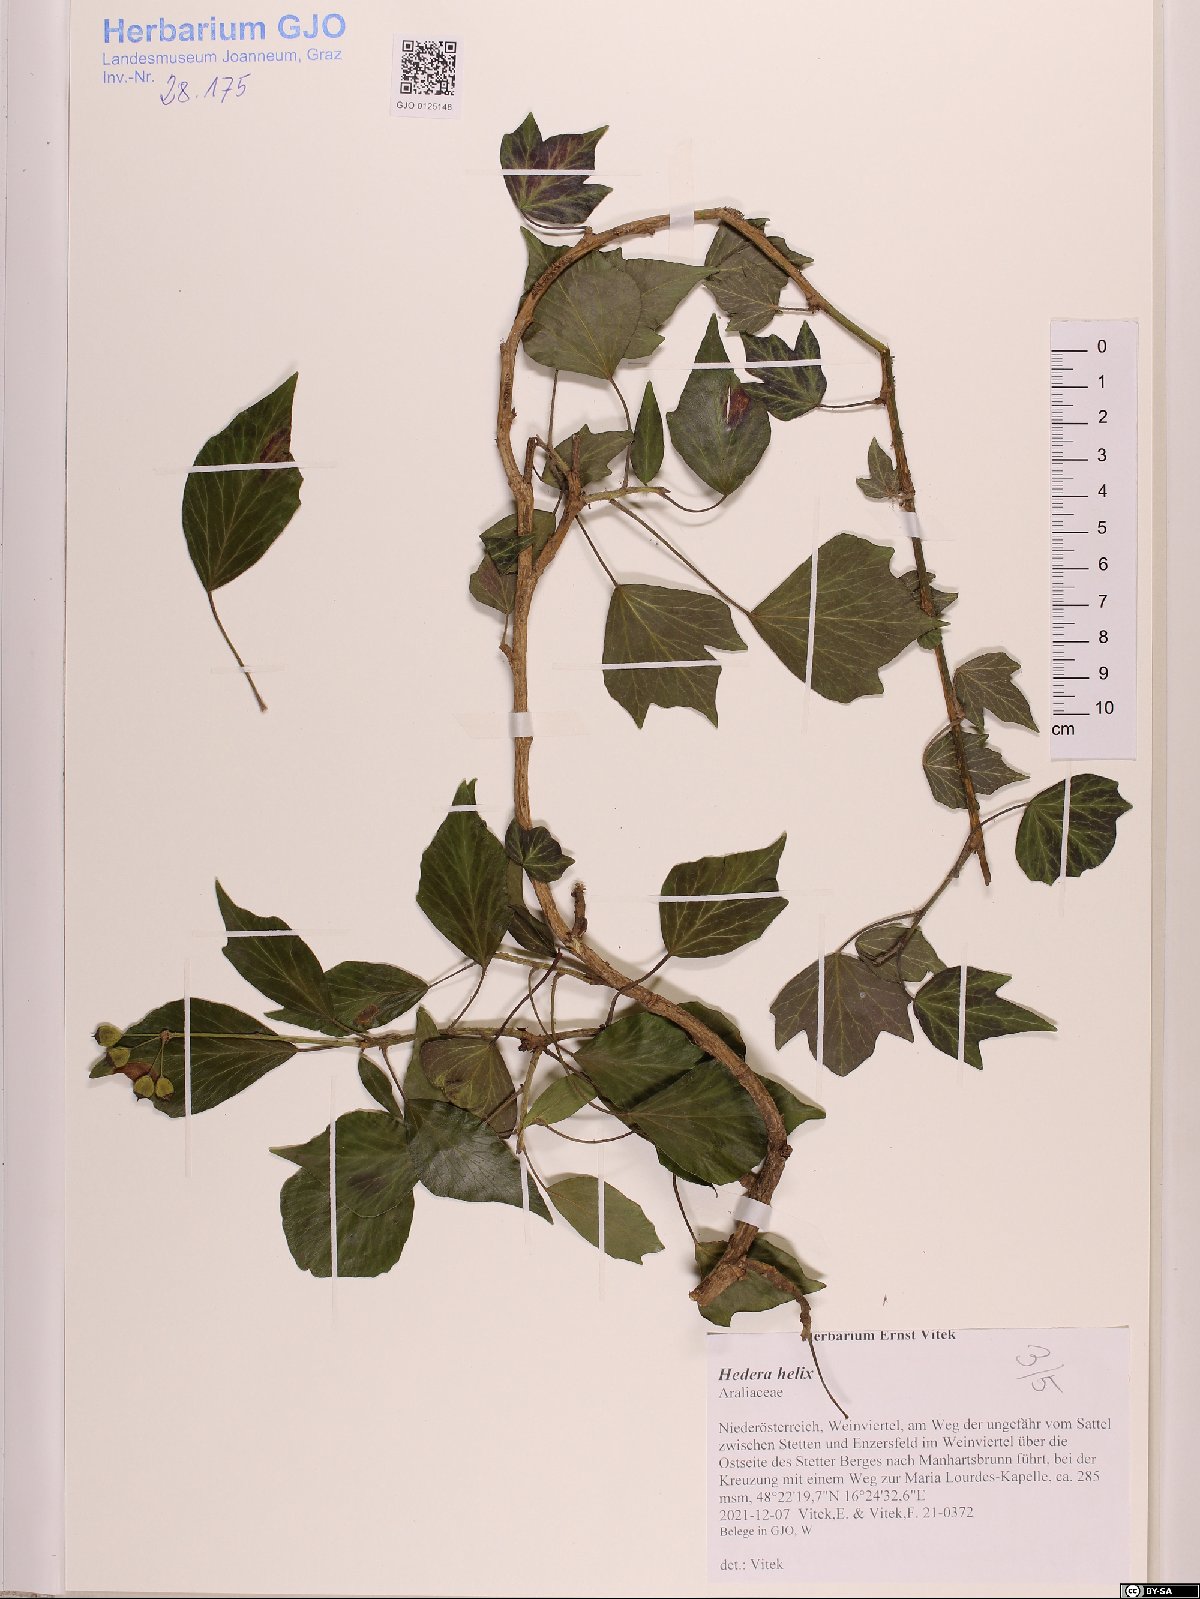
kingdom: Plantae
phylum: Tracheophyta
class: Magnoliopsida
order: Apiales
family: Araliaceae
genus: Hedera
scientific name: Hedera helix
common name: Ivy
